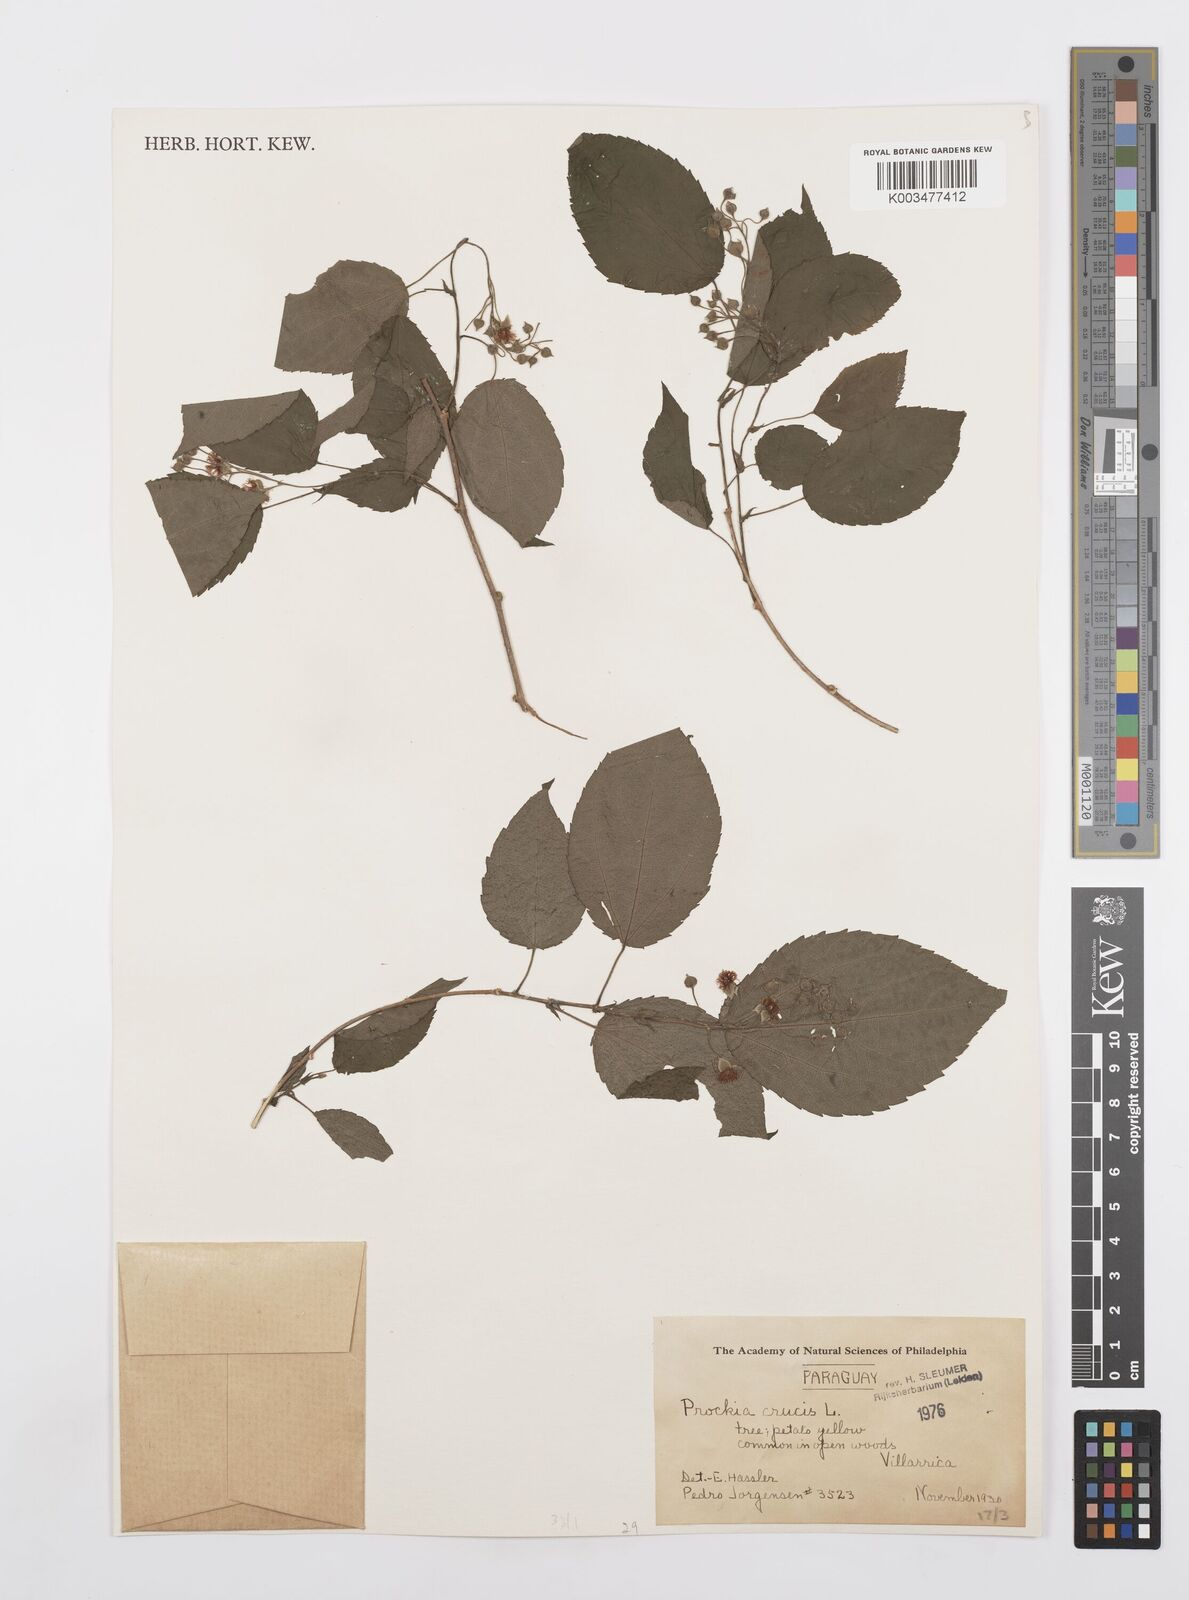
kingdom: Plantae
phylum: Tracheophyta
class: Magnoliopsida
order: Malpighiales
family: Salicaceae
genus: Prockia
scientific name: Prockia crucis
